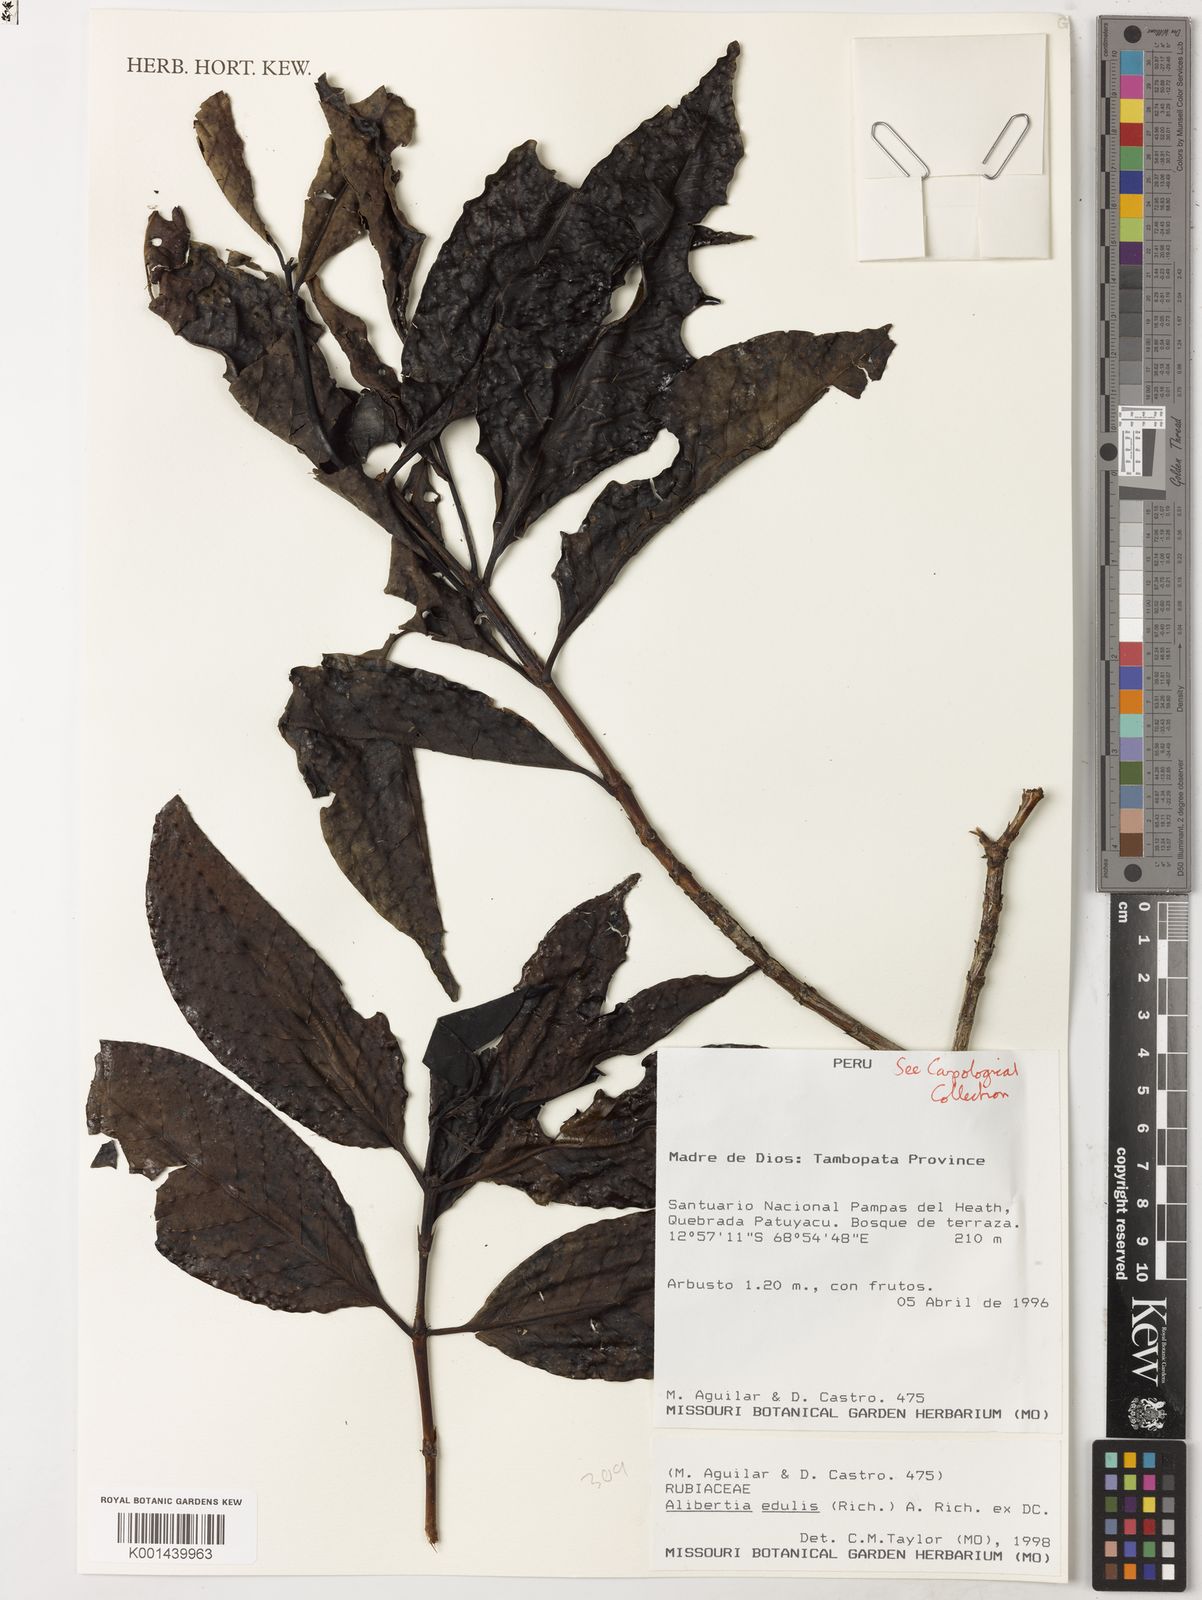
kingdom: Plantae
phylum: Tracheophyta
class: Magnoliopsida
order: Gentianales
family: Rubiaceae
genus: Alibertia
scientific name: Alibertia edulis
